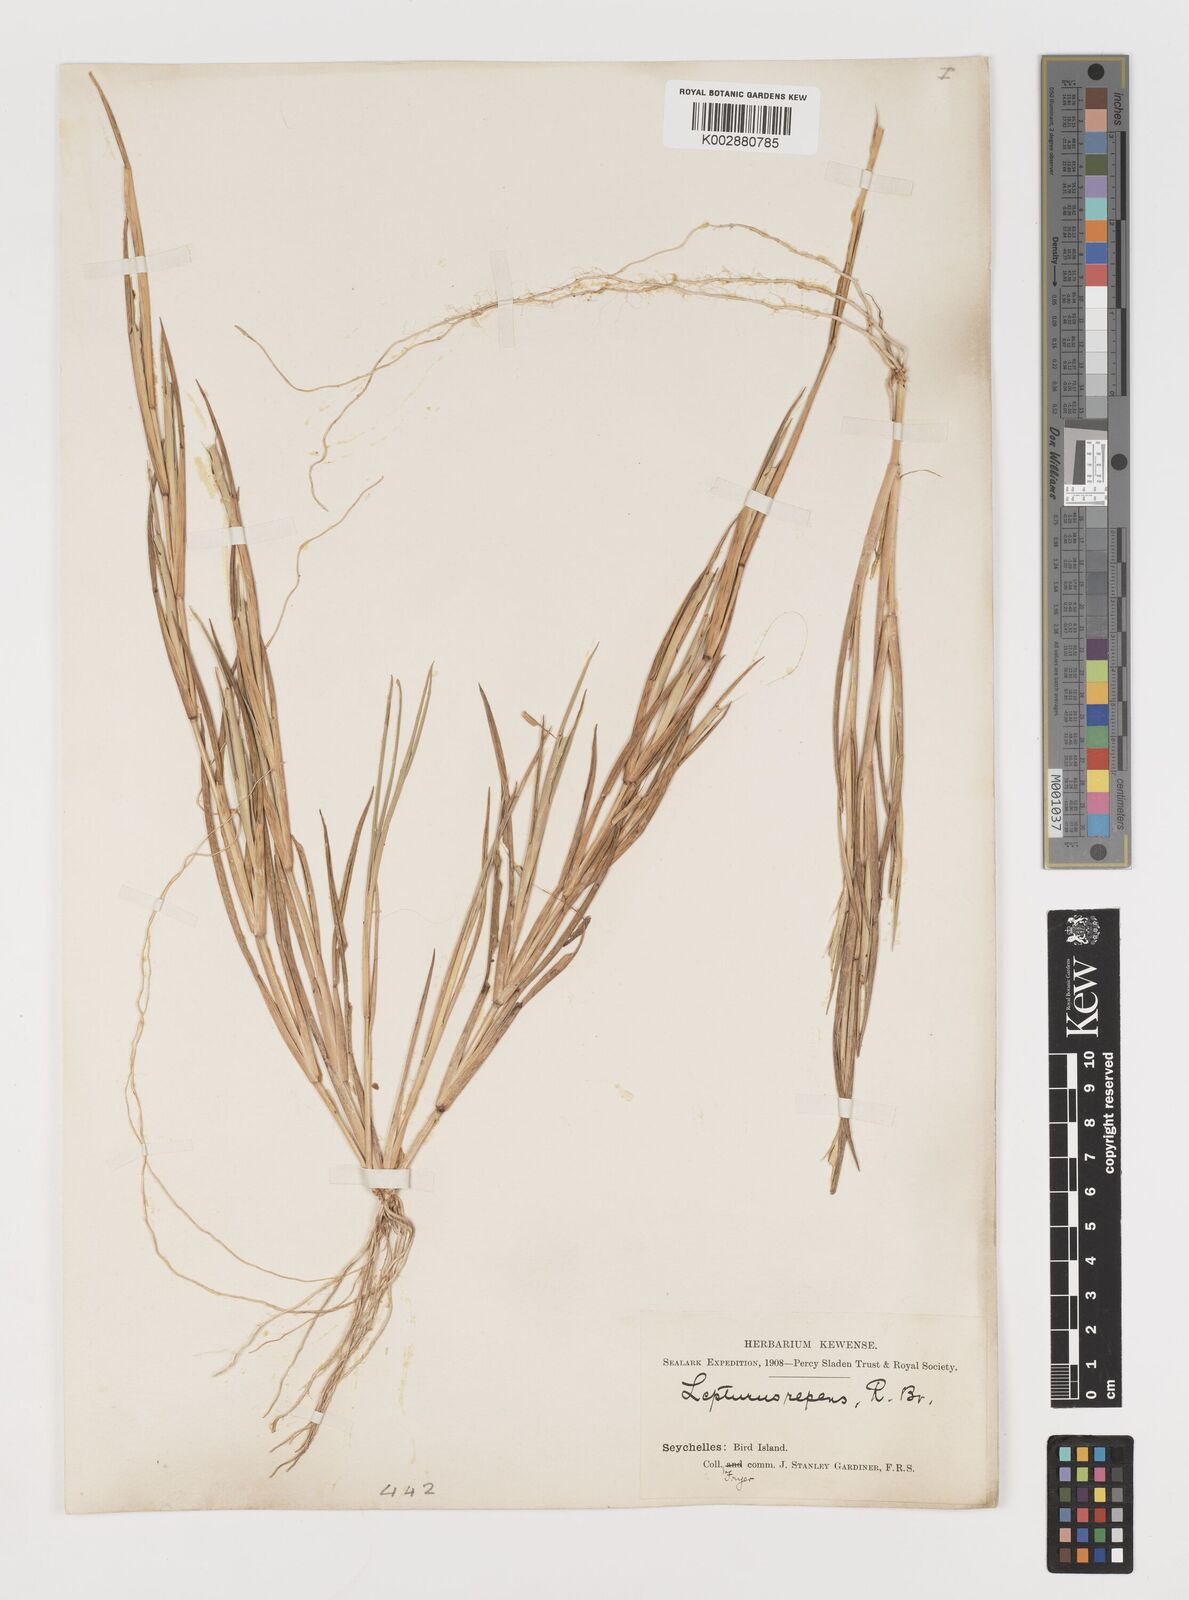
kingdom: Plantae
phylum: Tracheophyta
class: Liliopsida
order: Poales
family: Poaceae
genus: Lepturus
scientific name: Lepturus repens
